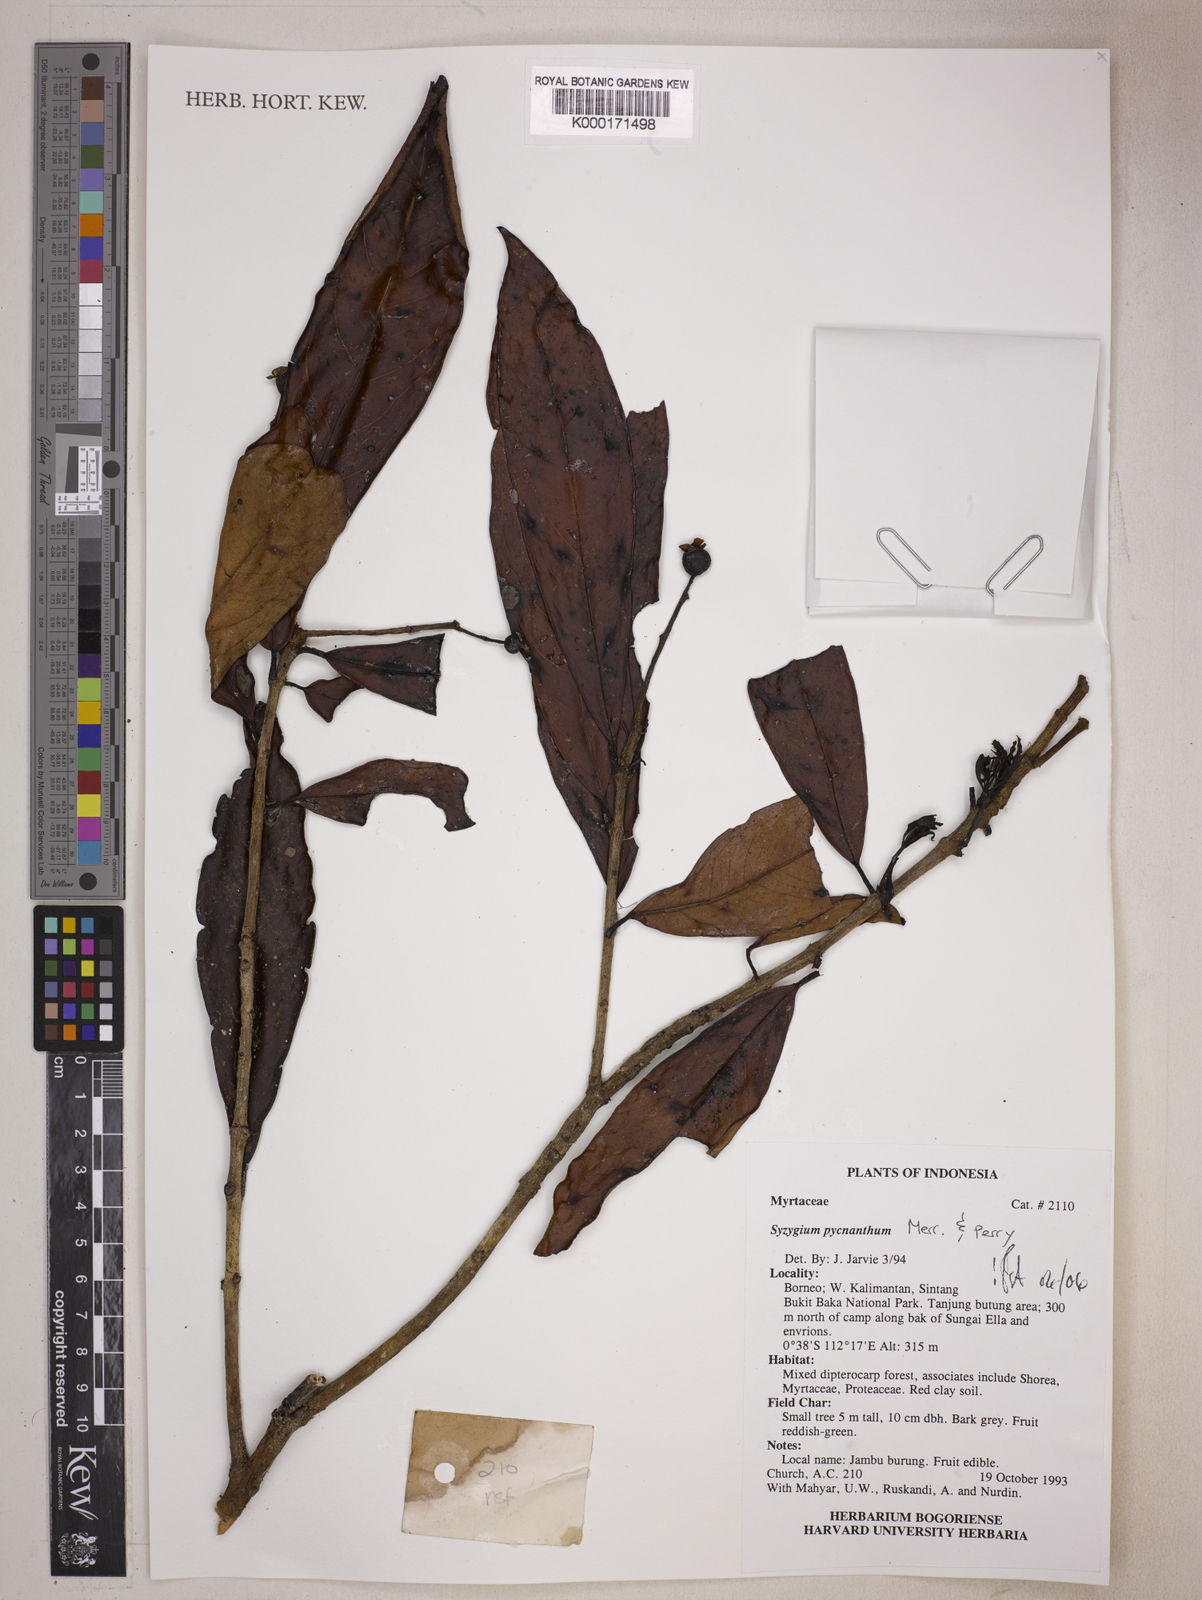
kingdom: Plantae
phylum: Tracheophyta
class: Magnoliopsida
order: Myrtales
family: Myrtaceae
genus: Syzygium
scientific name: Syzygium
